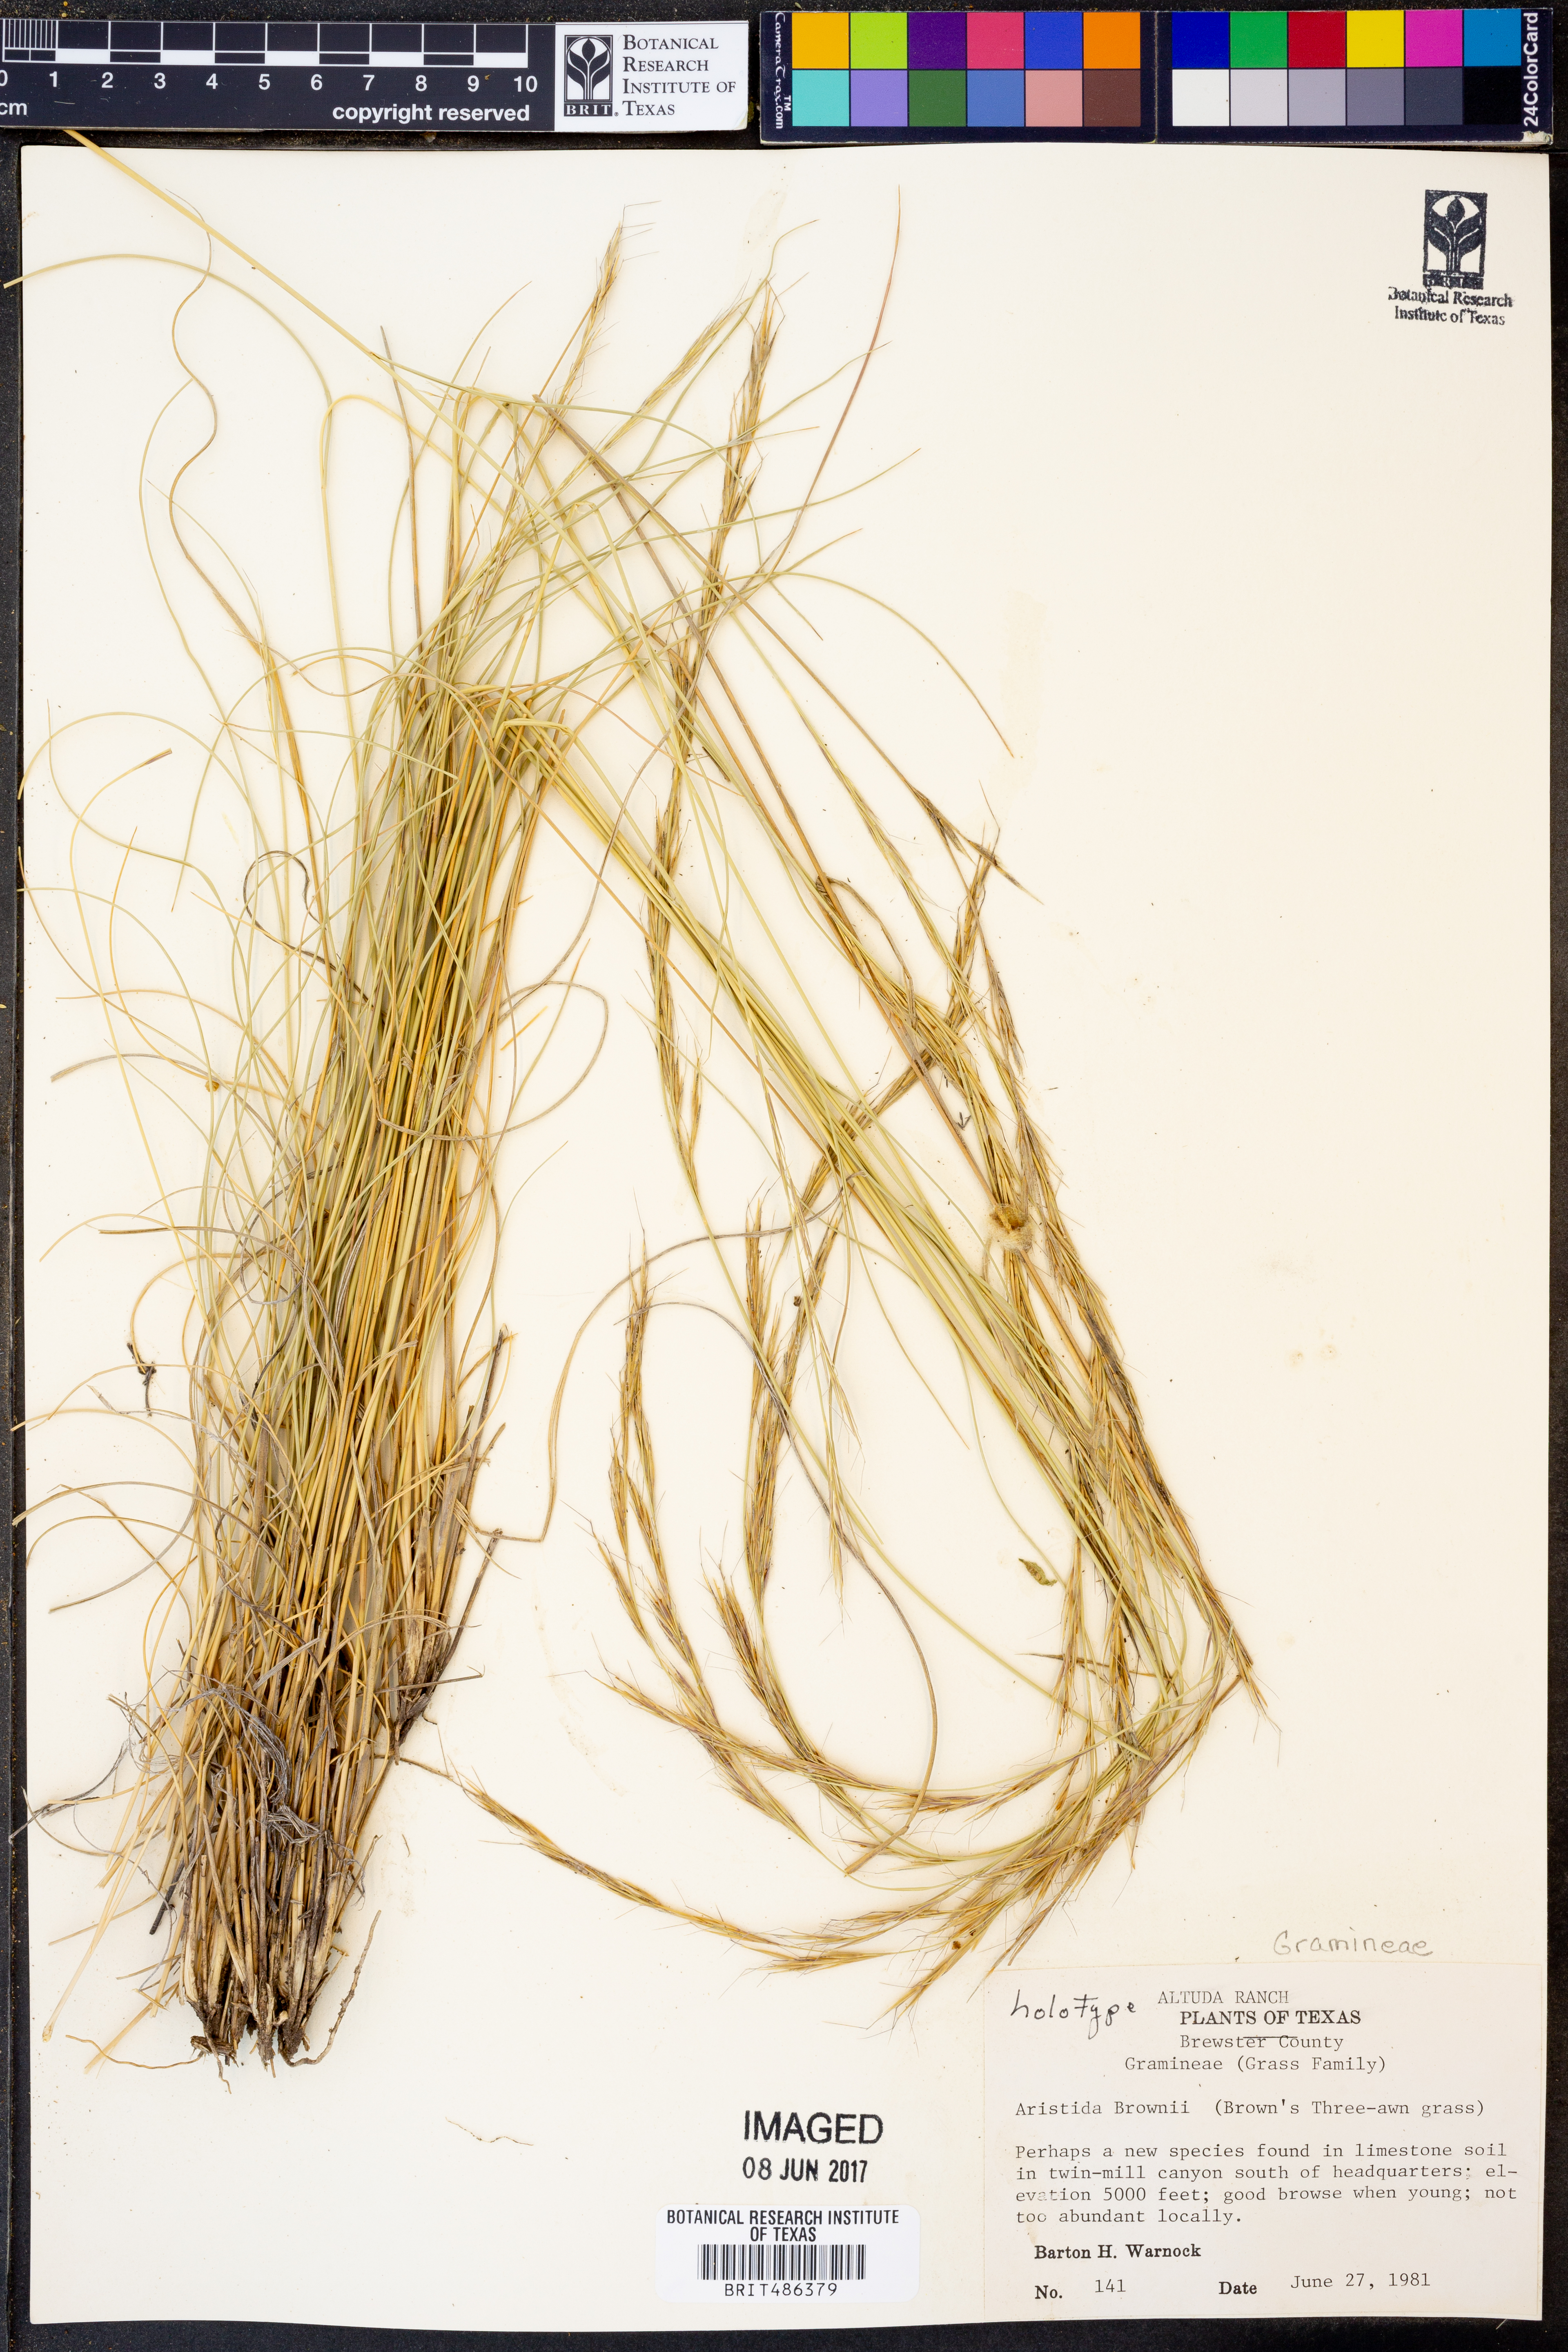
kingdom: Plantae
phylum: Tracheophyta
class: Liliopsida
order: Poales
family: Poaceae
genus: Aristida
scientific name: Aristida purpurea
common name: Purple threeawn
